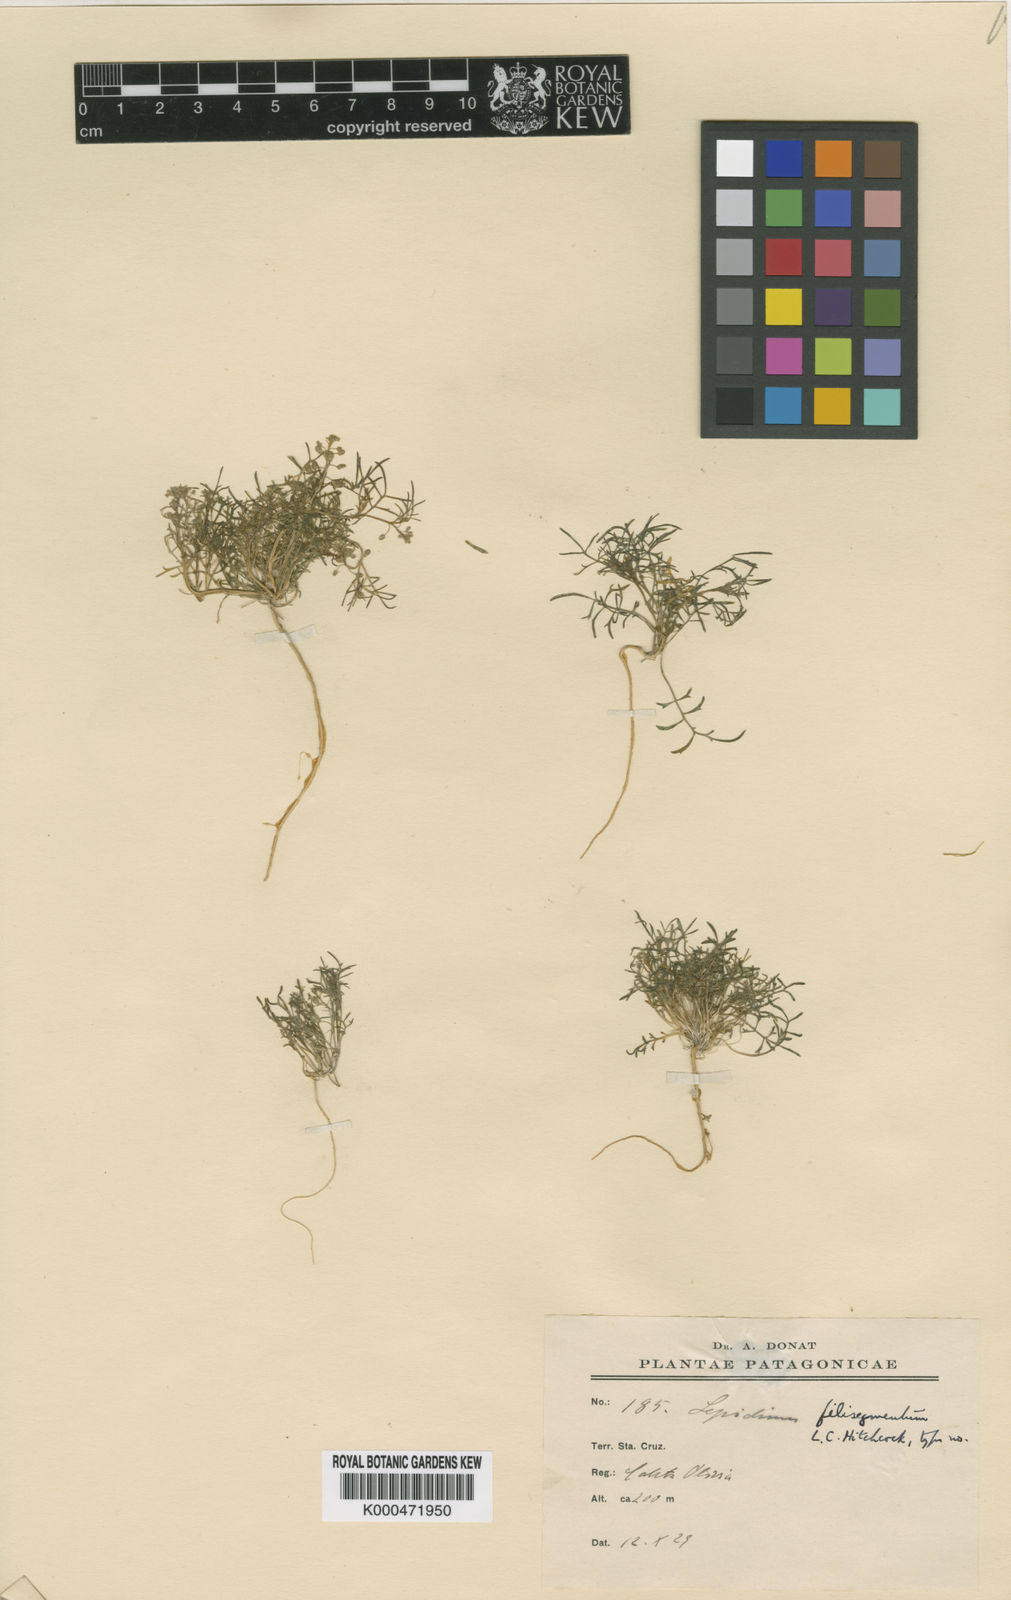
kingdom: Plantae
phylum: Tracheophyta
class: Magnoliopsida
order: Brassicales
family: Brassicaceae
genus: Lepidium
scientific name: Lepidium filisegmentum
